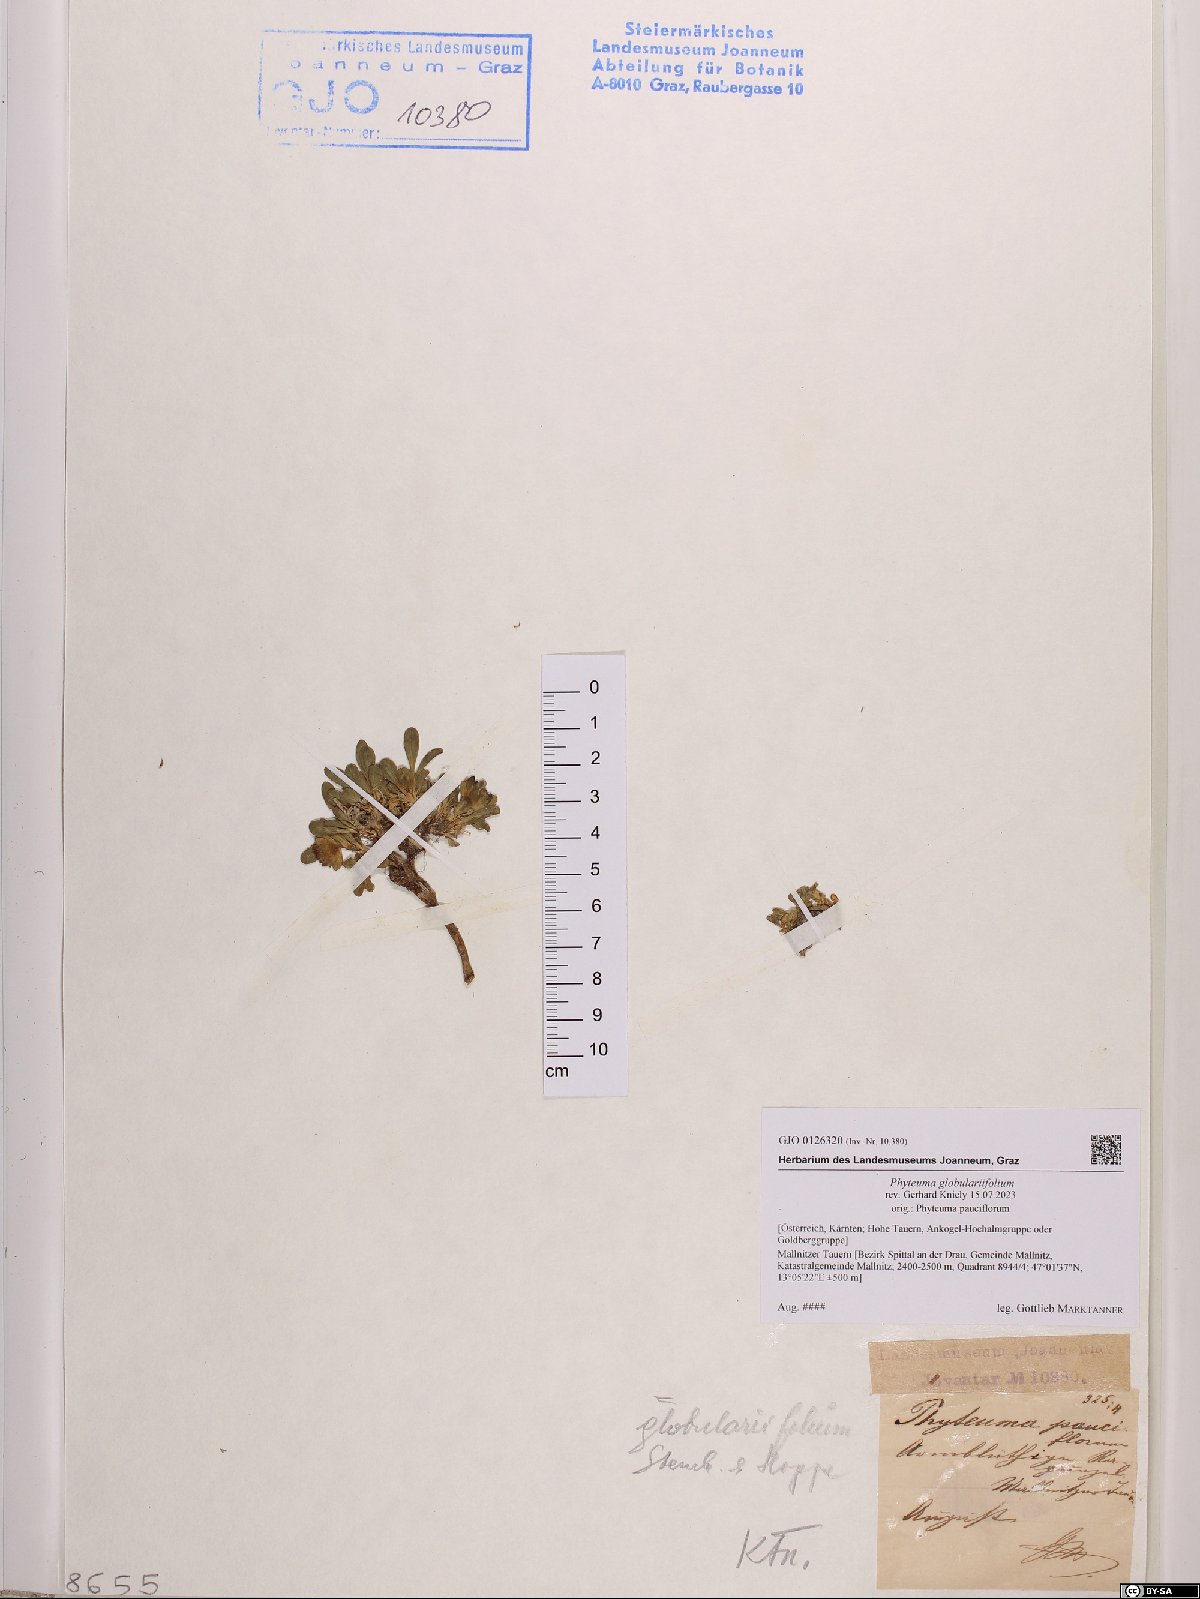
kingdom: Plantae
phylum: Tracheophyta
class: Magnoliopsida
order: Asterales
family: Campanulaceae
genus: Phyteuma
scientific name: Phyteuma globulariifolium
